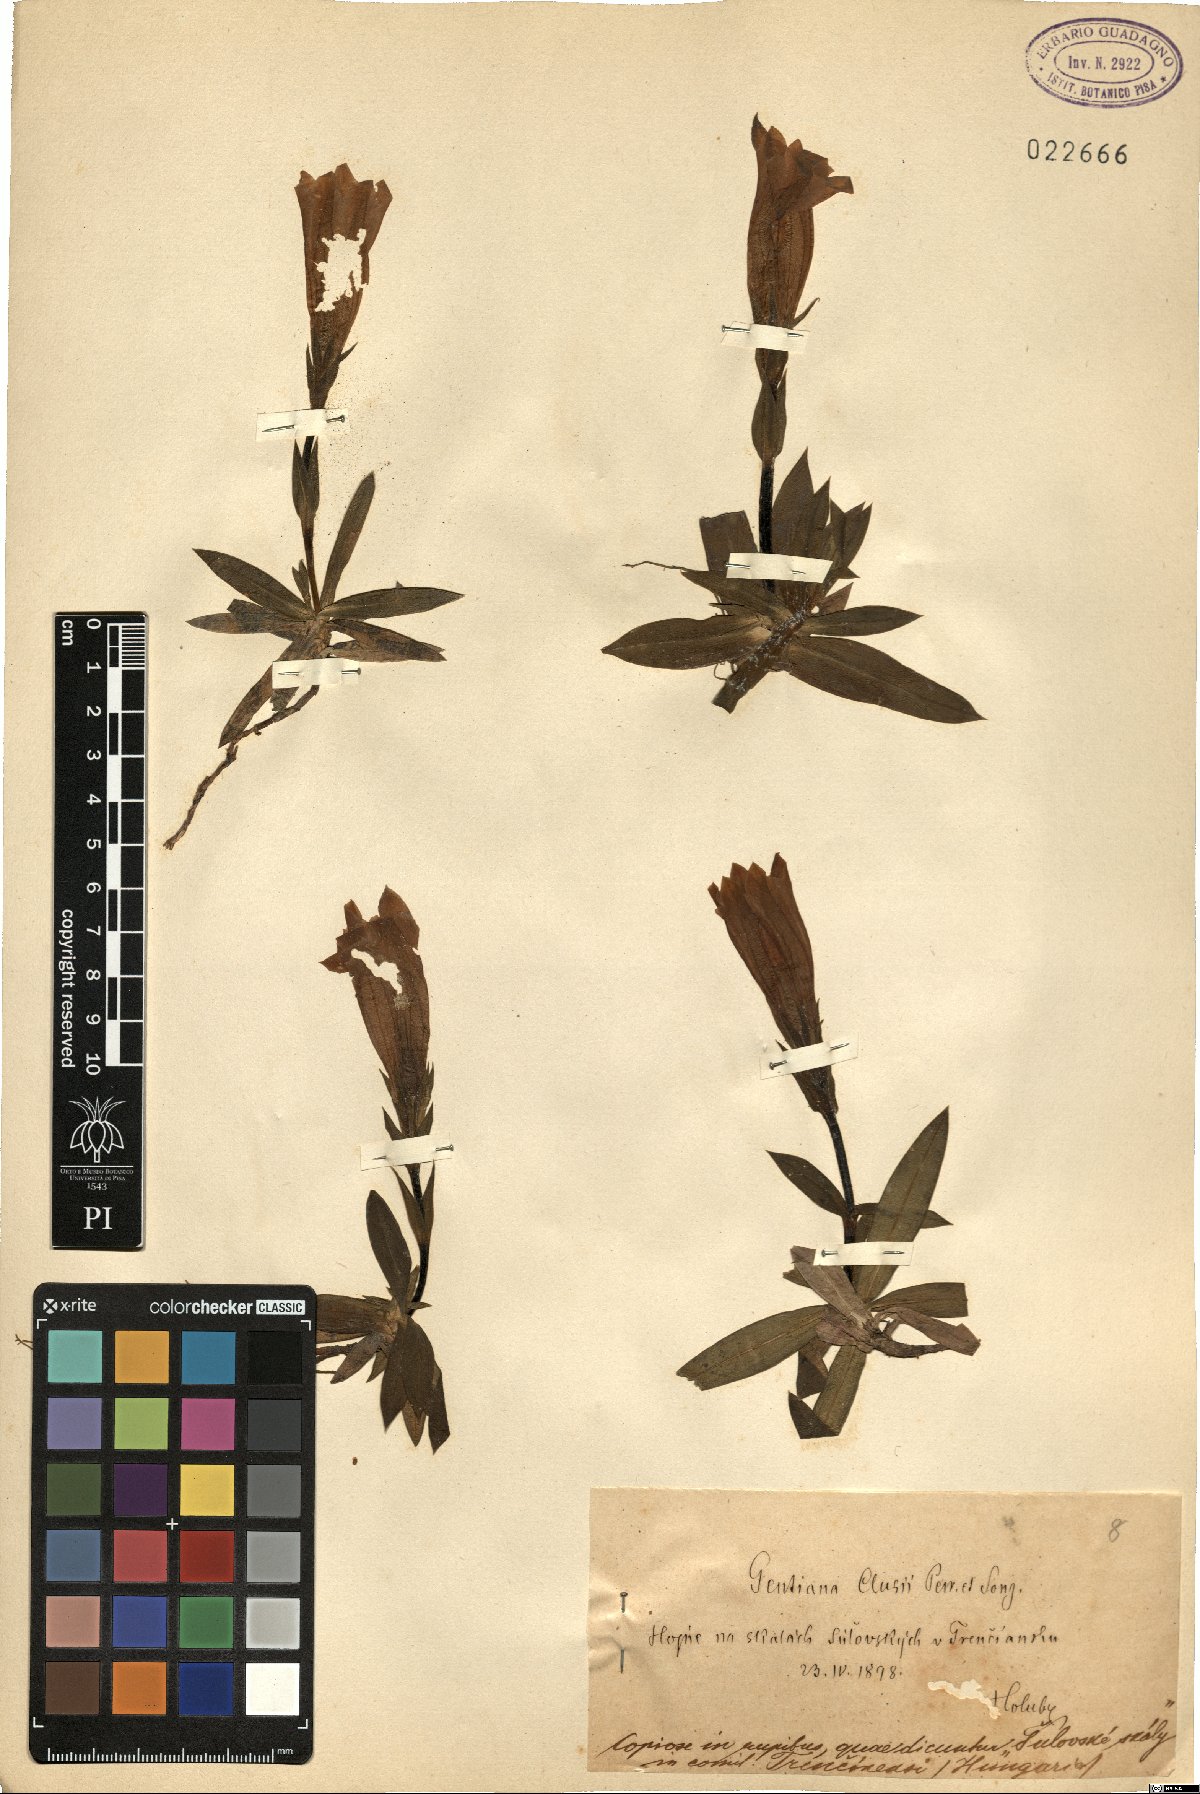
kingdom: Plantae
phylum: Tracheophyta
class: Magnoliopsida
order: Gentianales
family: Gentianaceae
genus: Gentiana
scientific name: Gentiana clusii
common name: Trumpet gentian
